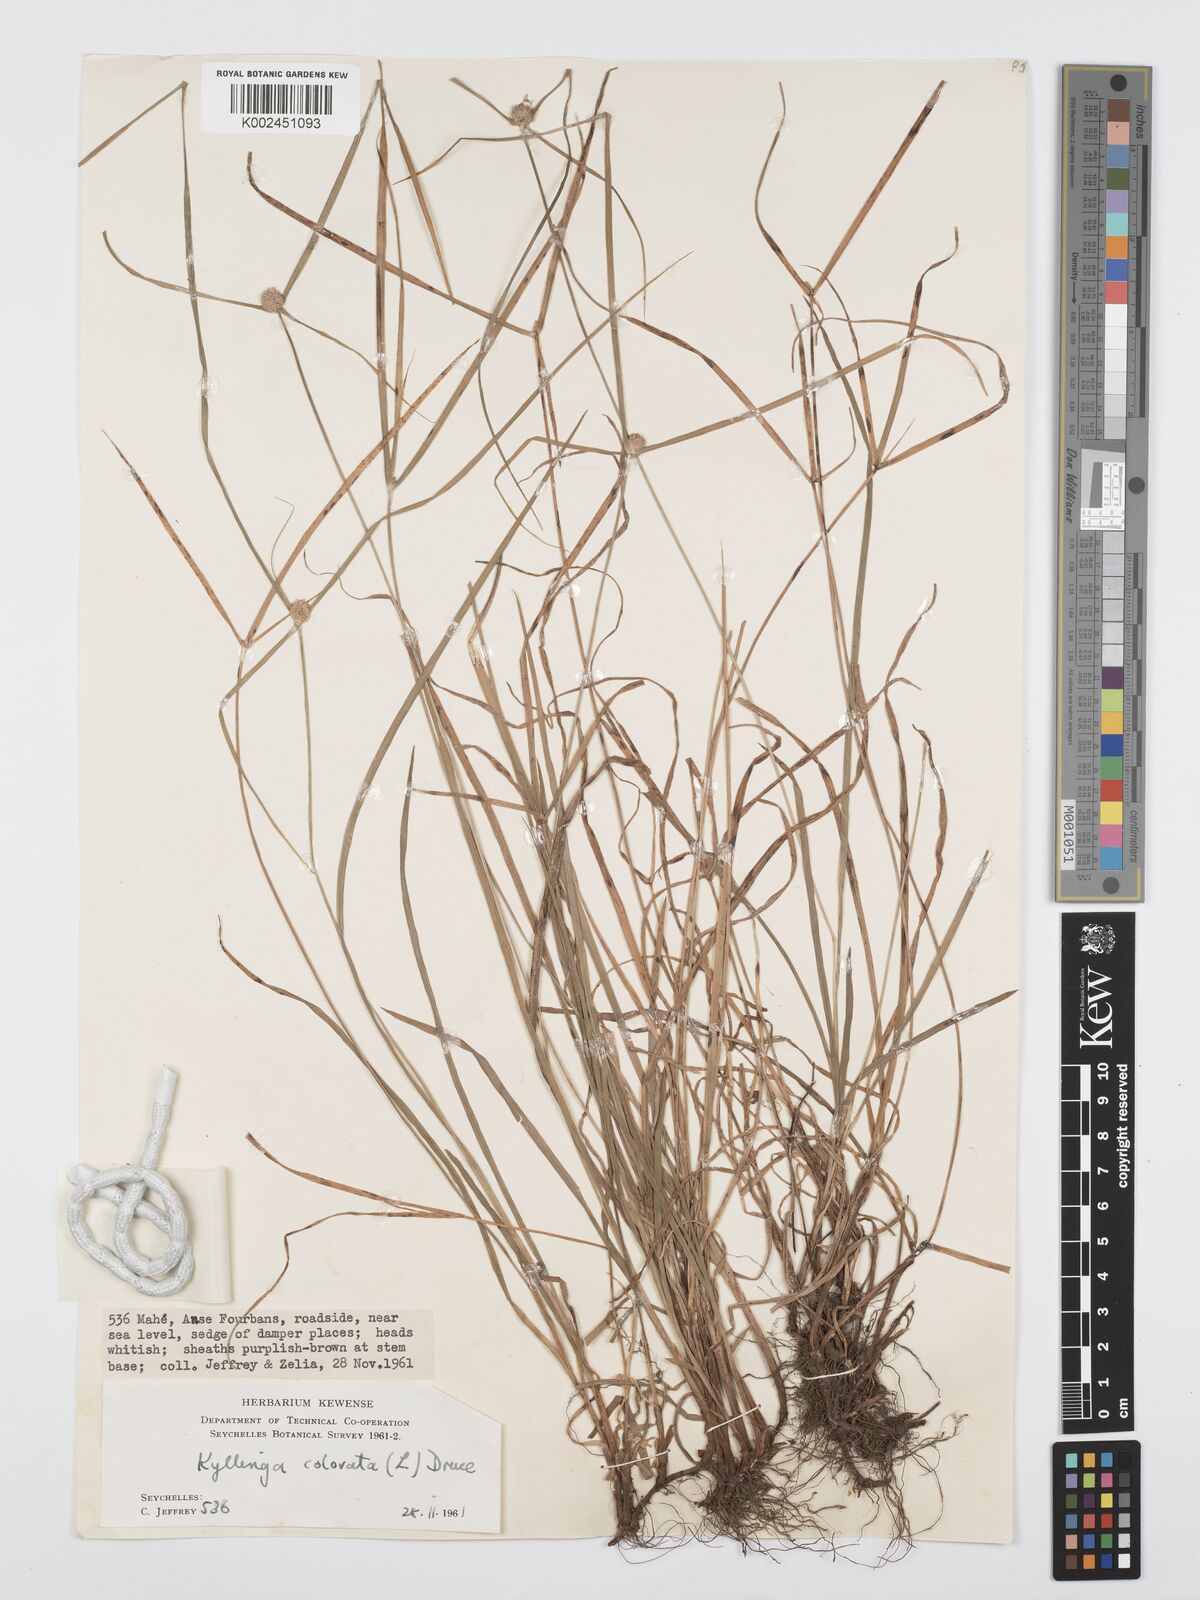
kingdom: Plantae
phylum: Tracheophyta
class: Liliopsida
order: Poales
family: Cyperaceae
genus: Cyperus
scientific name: Cyperus nemoralis
